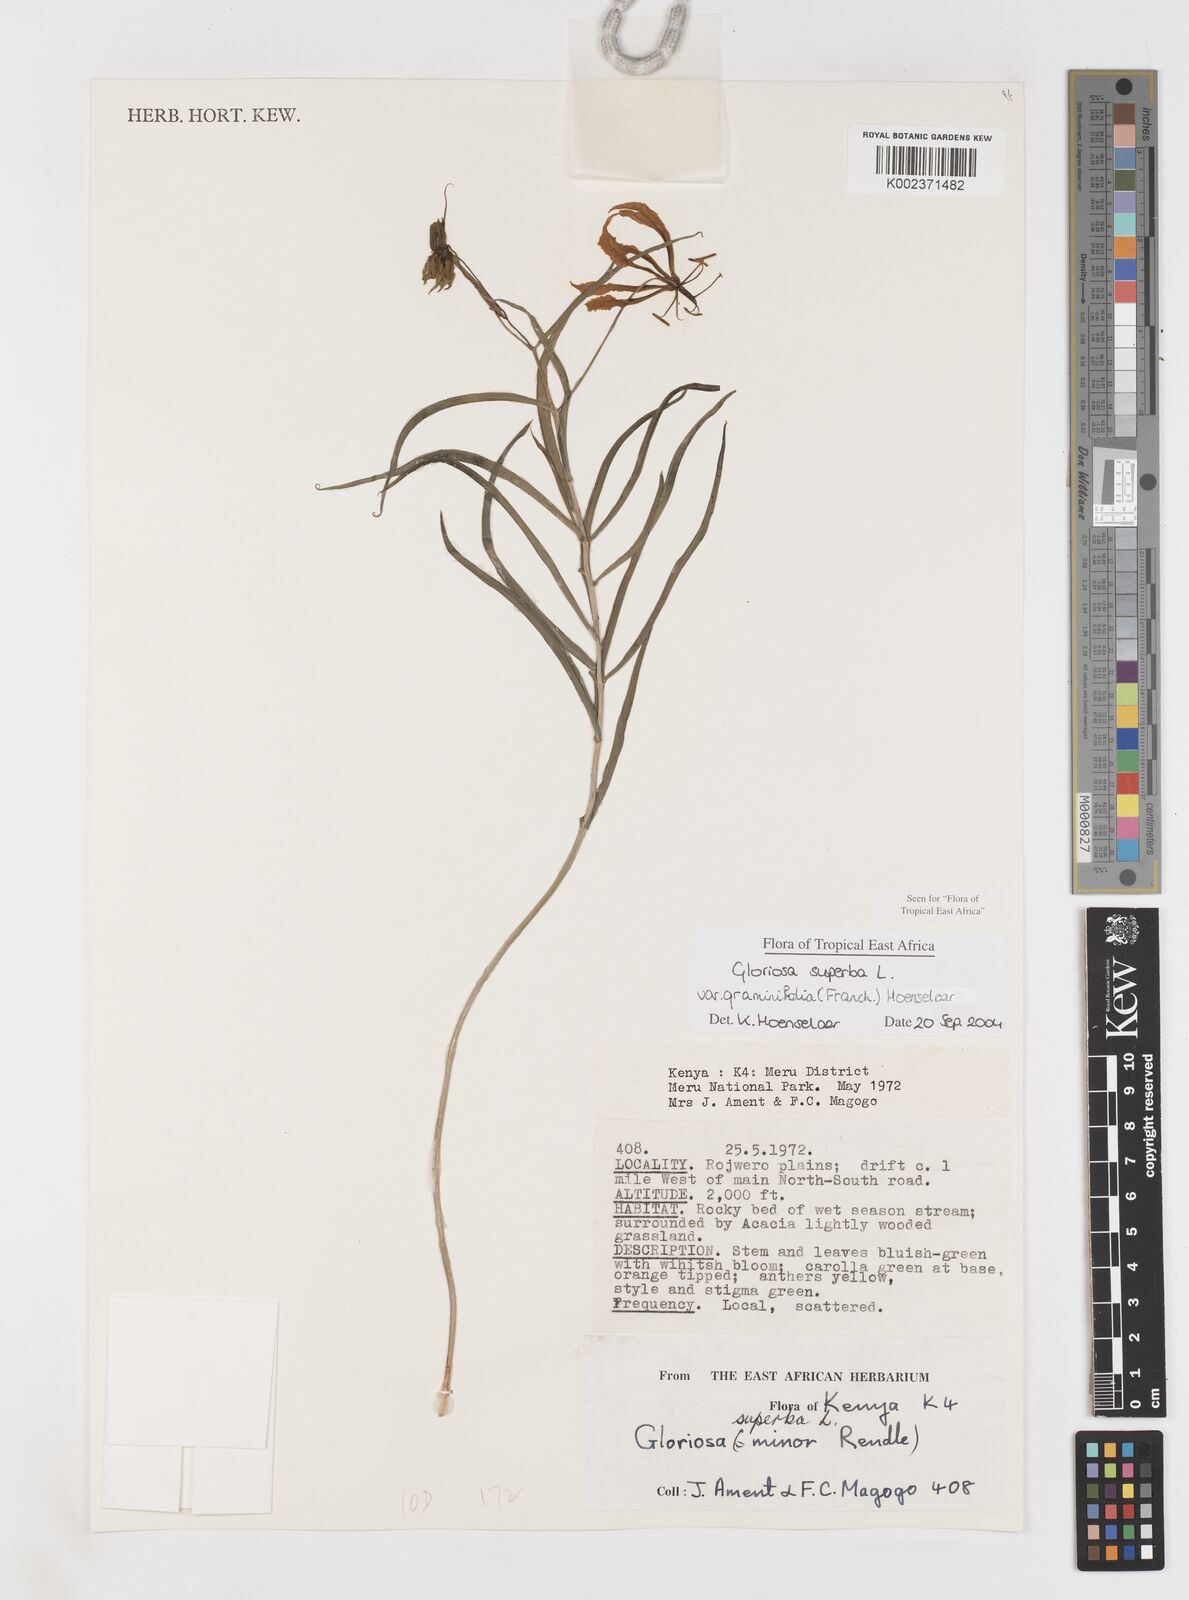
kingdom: Plantae
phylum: Tracheophyta
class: Liliopsida
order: Liliales
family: Colchicaceae
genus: Gloriosa
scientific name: Gloriosa baudii
